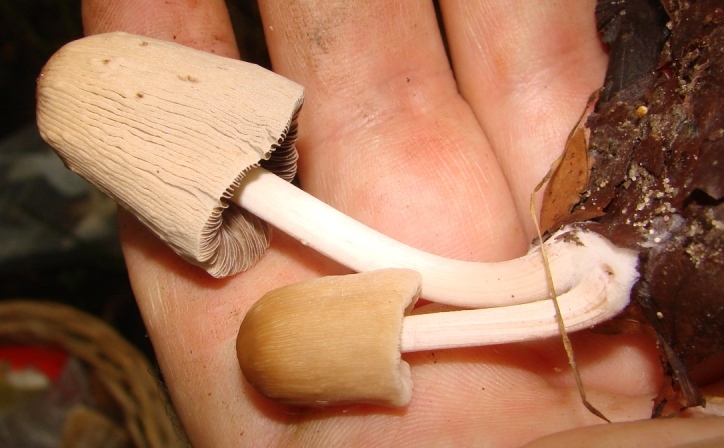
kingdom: Fungi
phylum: Basidiomycota
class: Agaricomycetes
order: Agaricales
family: Psathyrellaceae
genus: Parasola
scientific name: Parasola lilatincta
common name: lillatonet hjulhat
